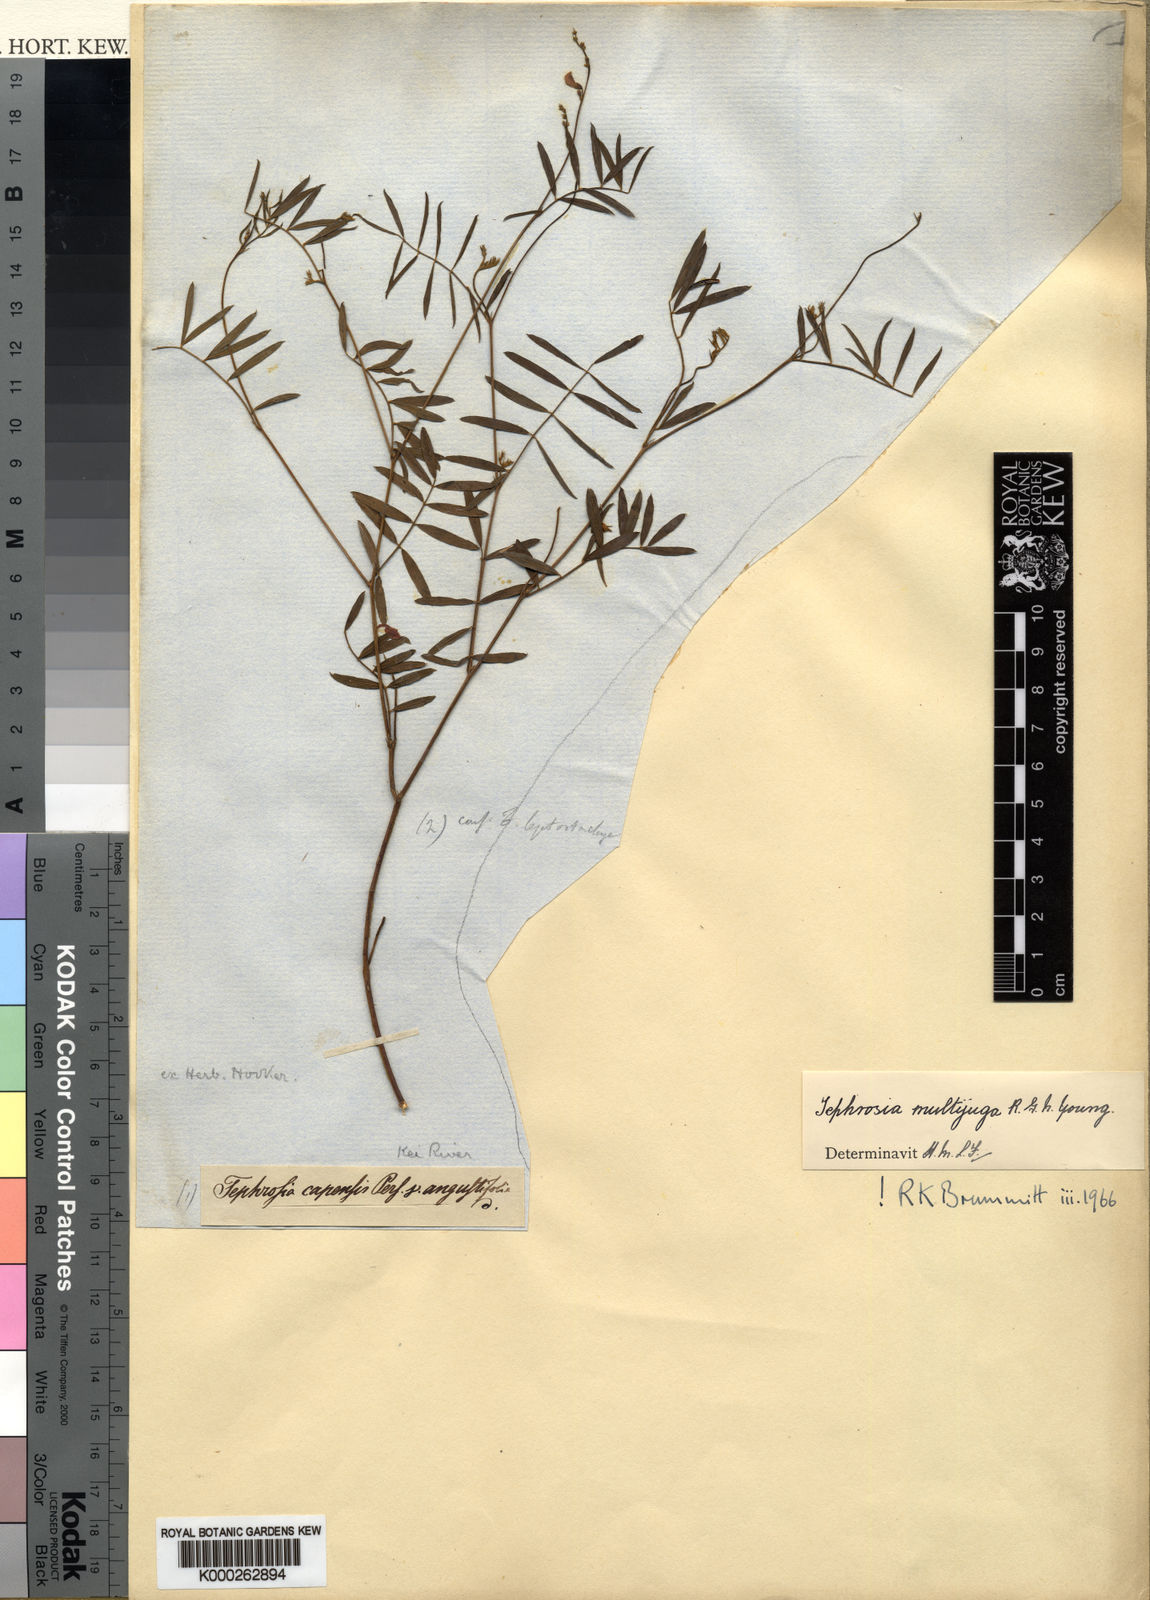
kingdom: Plantae
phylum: Tracheophyta
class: Magnoliopsida
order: Fabales
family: Fabaceae
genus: Tephrosia
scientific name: Tephrosia multijuga
